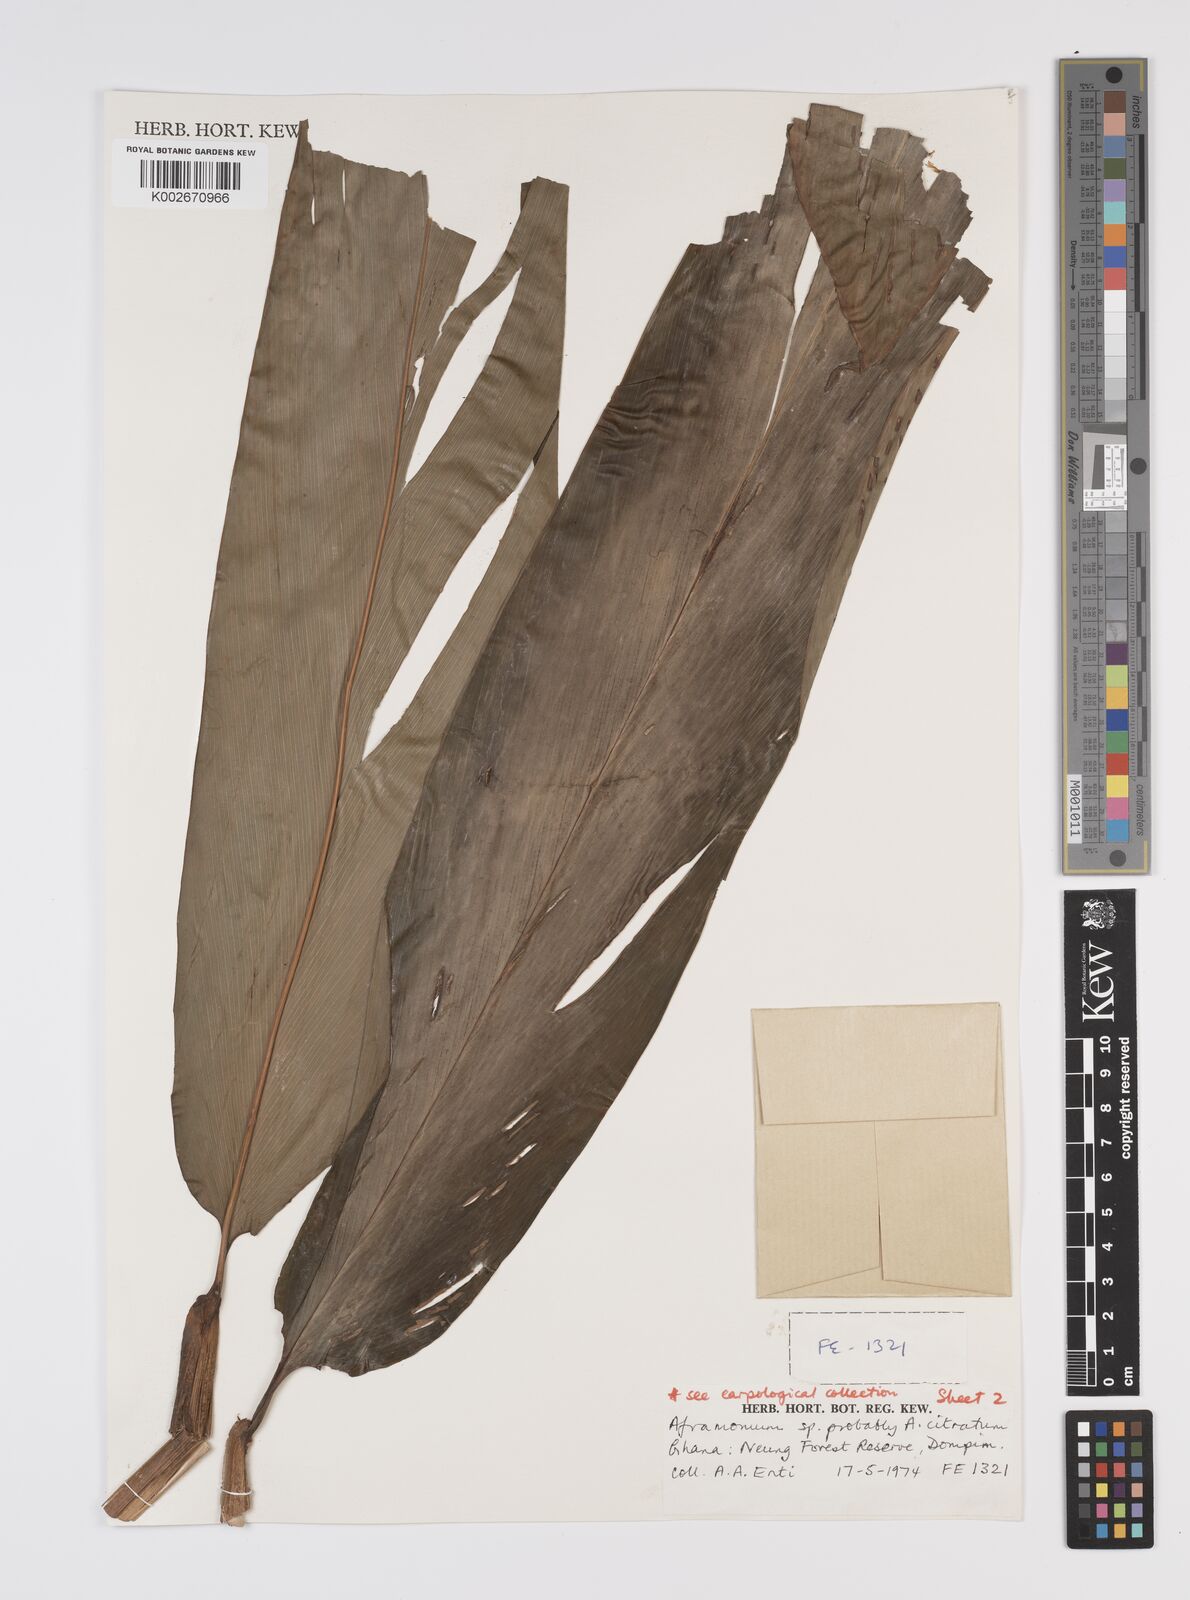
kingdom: Plantae
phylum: Tracheophyta
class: Liliopsida
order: Zingiberales
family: Zingiberaceae
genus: Aframomum
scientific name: Aframomum strobilaceum
